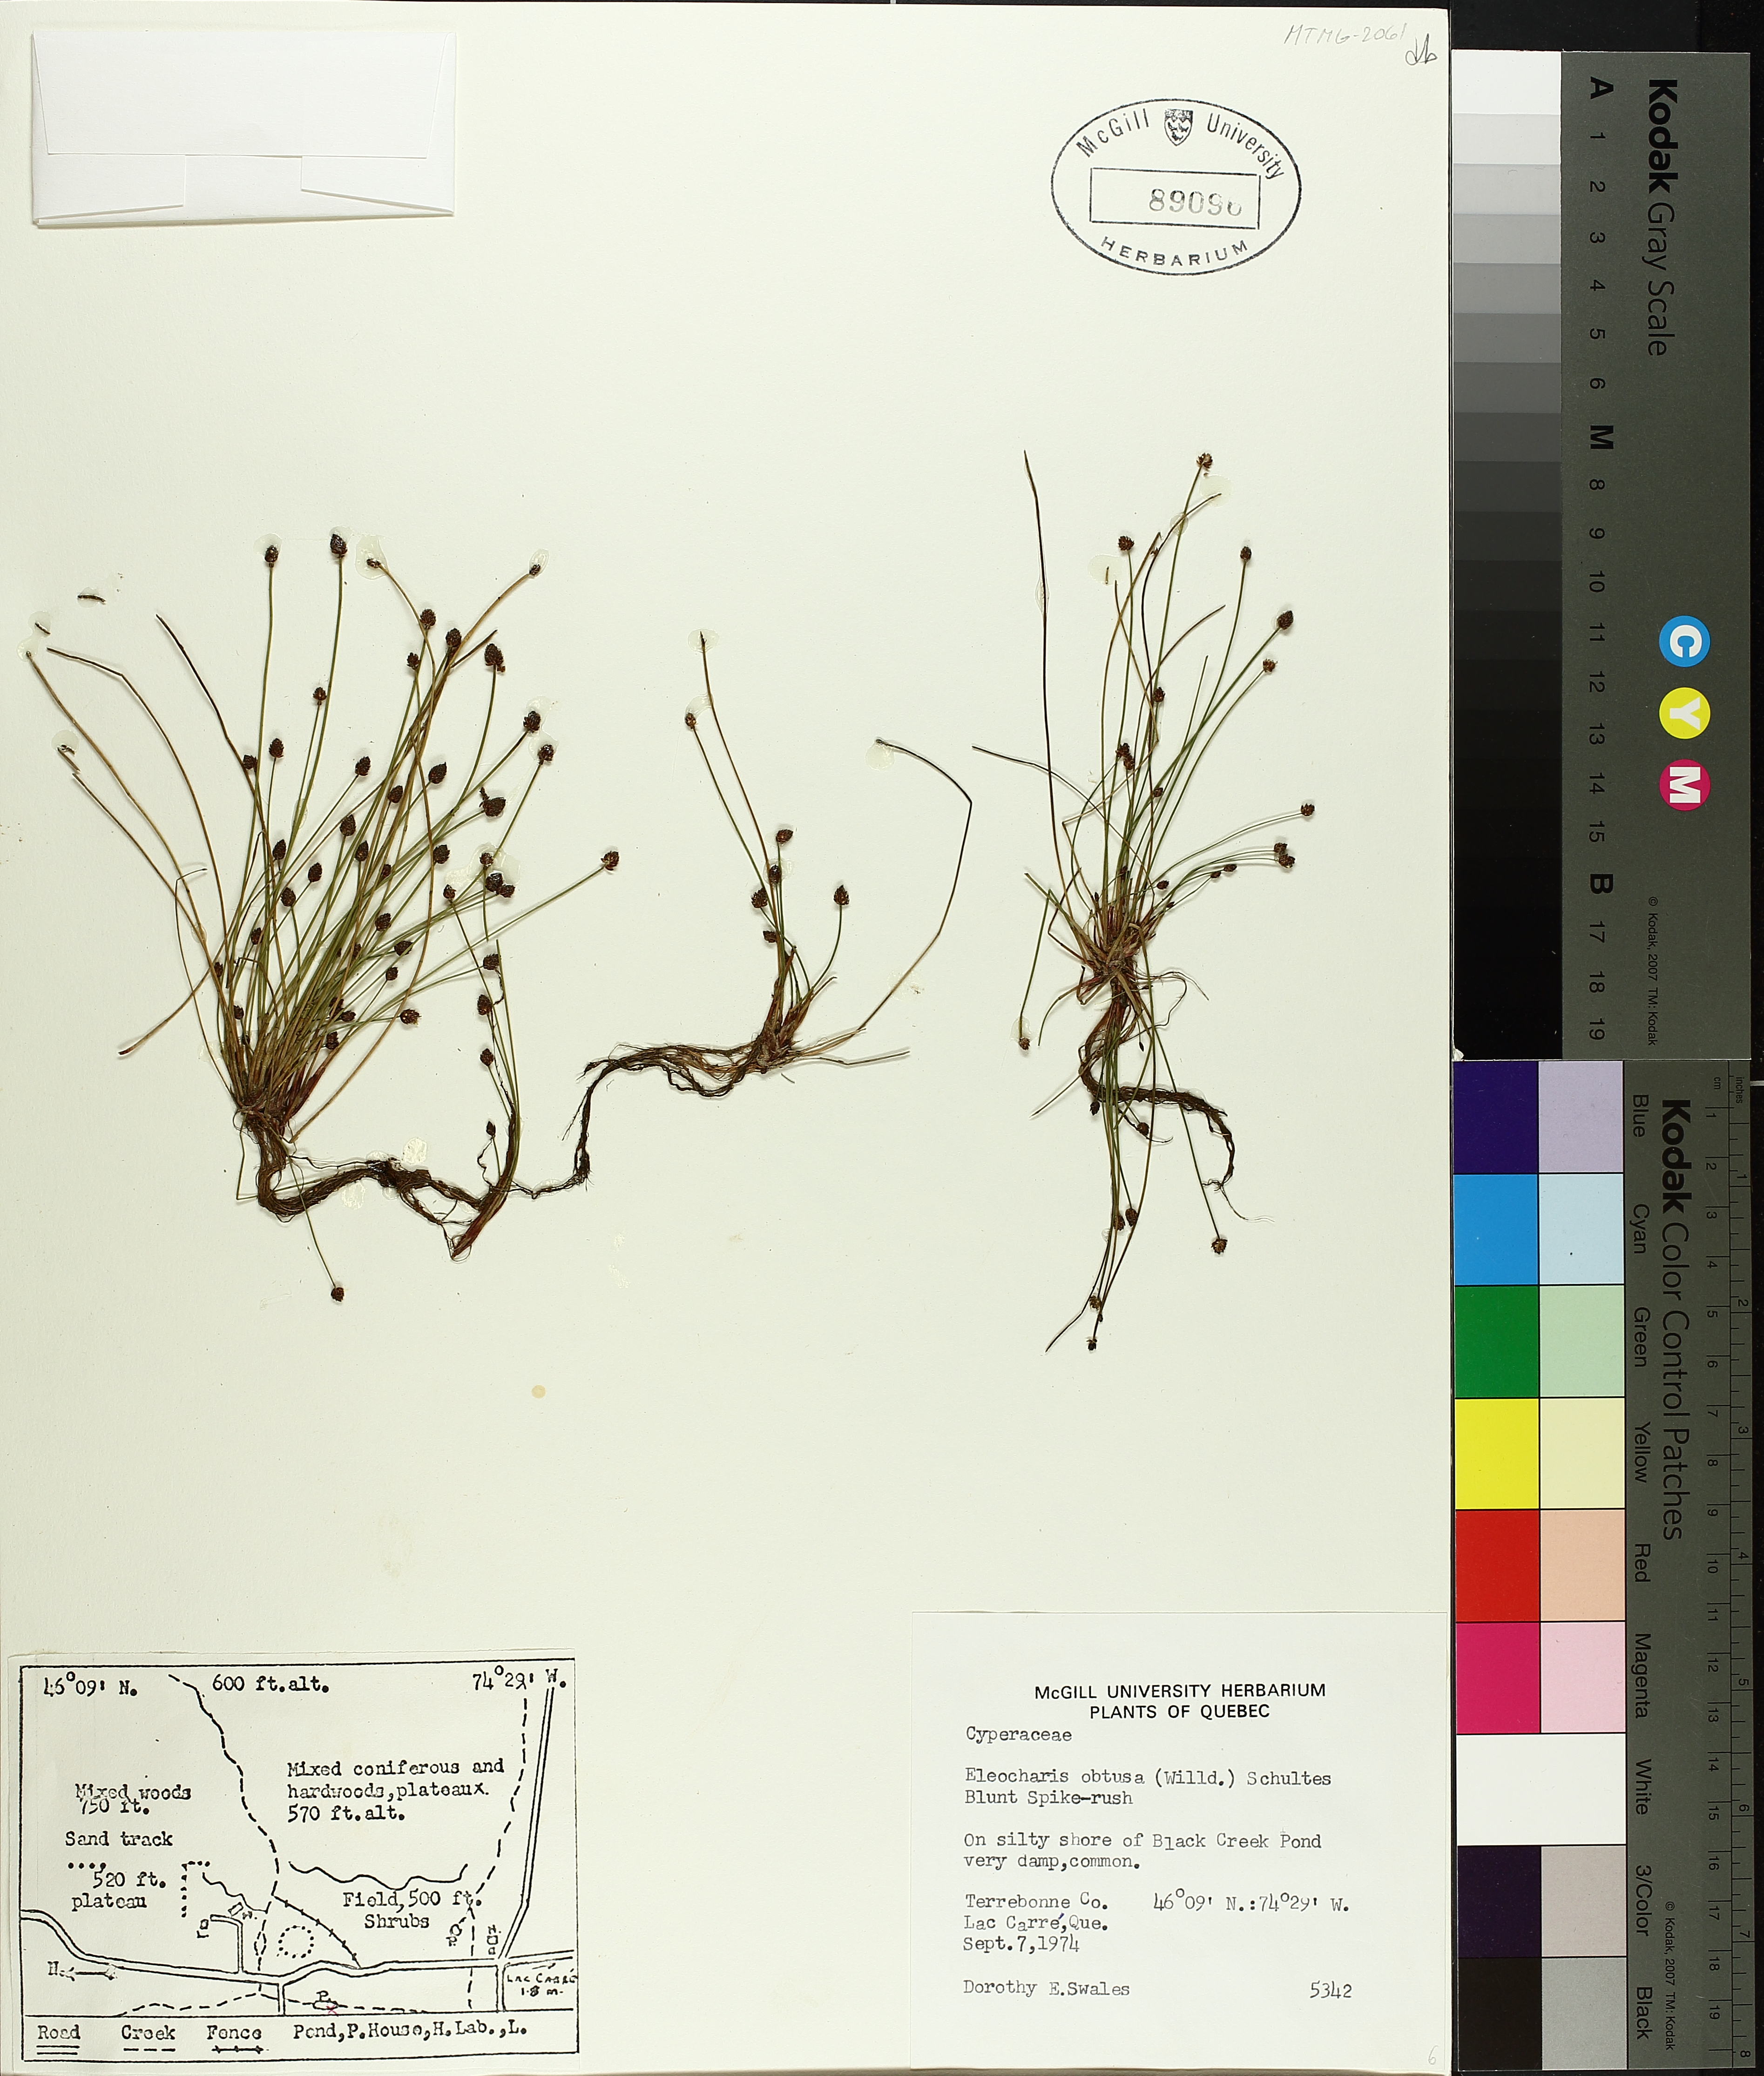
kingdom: Plantae
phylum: Tracheophyta
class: Liliopsida
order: Poales
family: Cyperaceae
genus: Eleocharis
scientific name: Eleocharis obtusa
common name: Blunt spikerush
